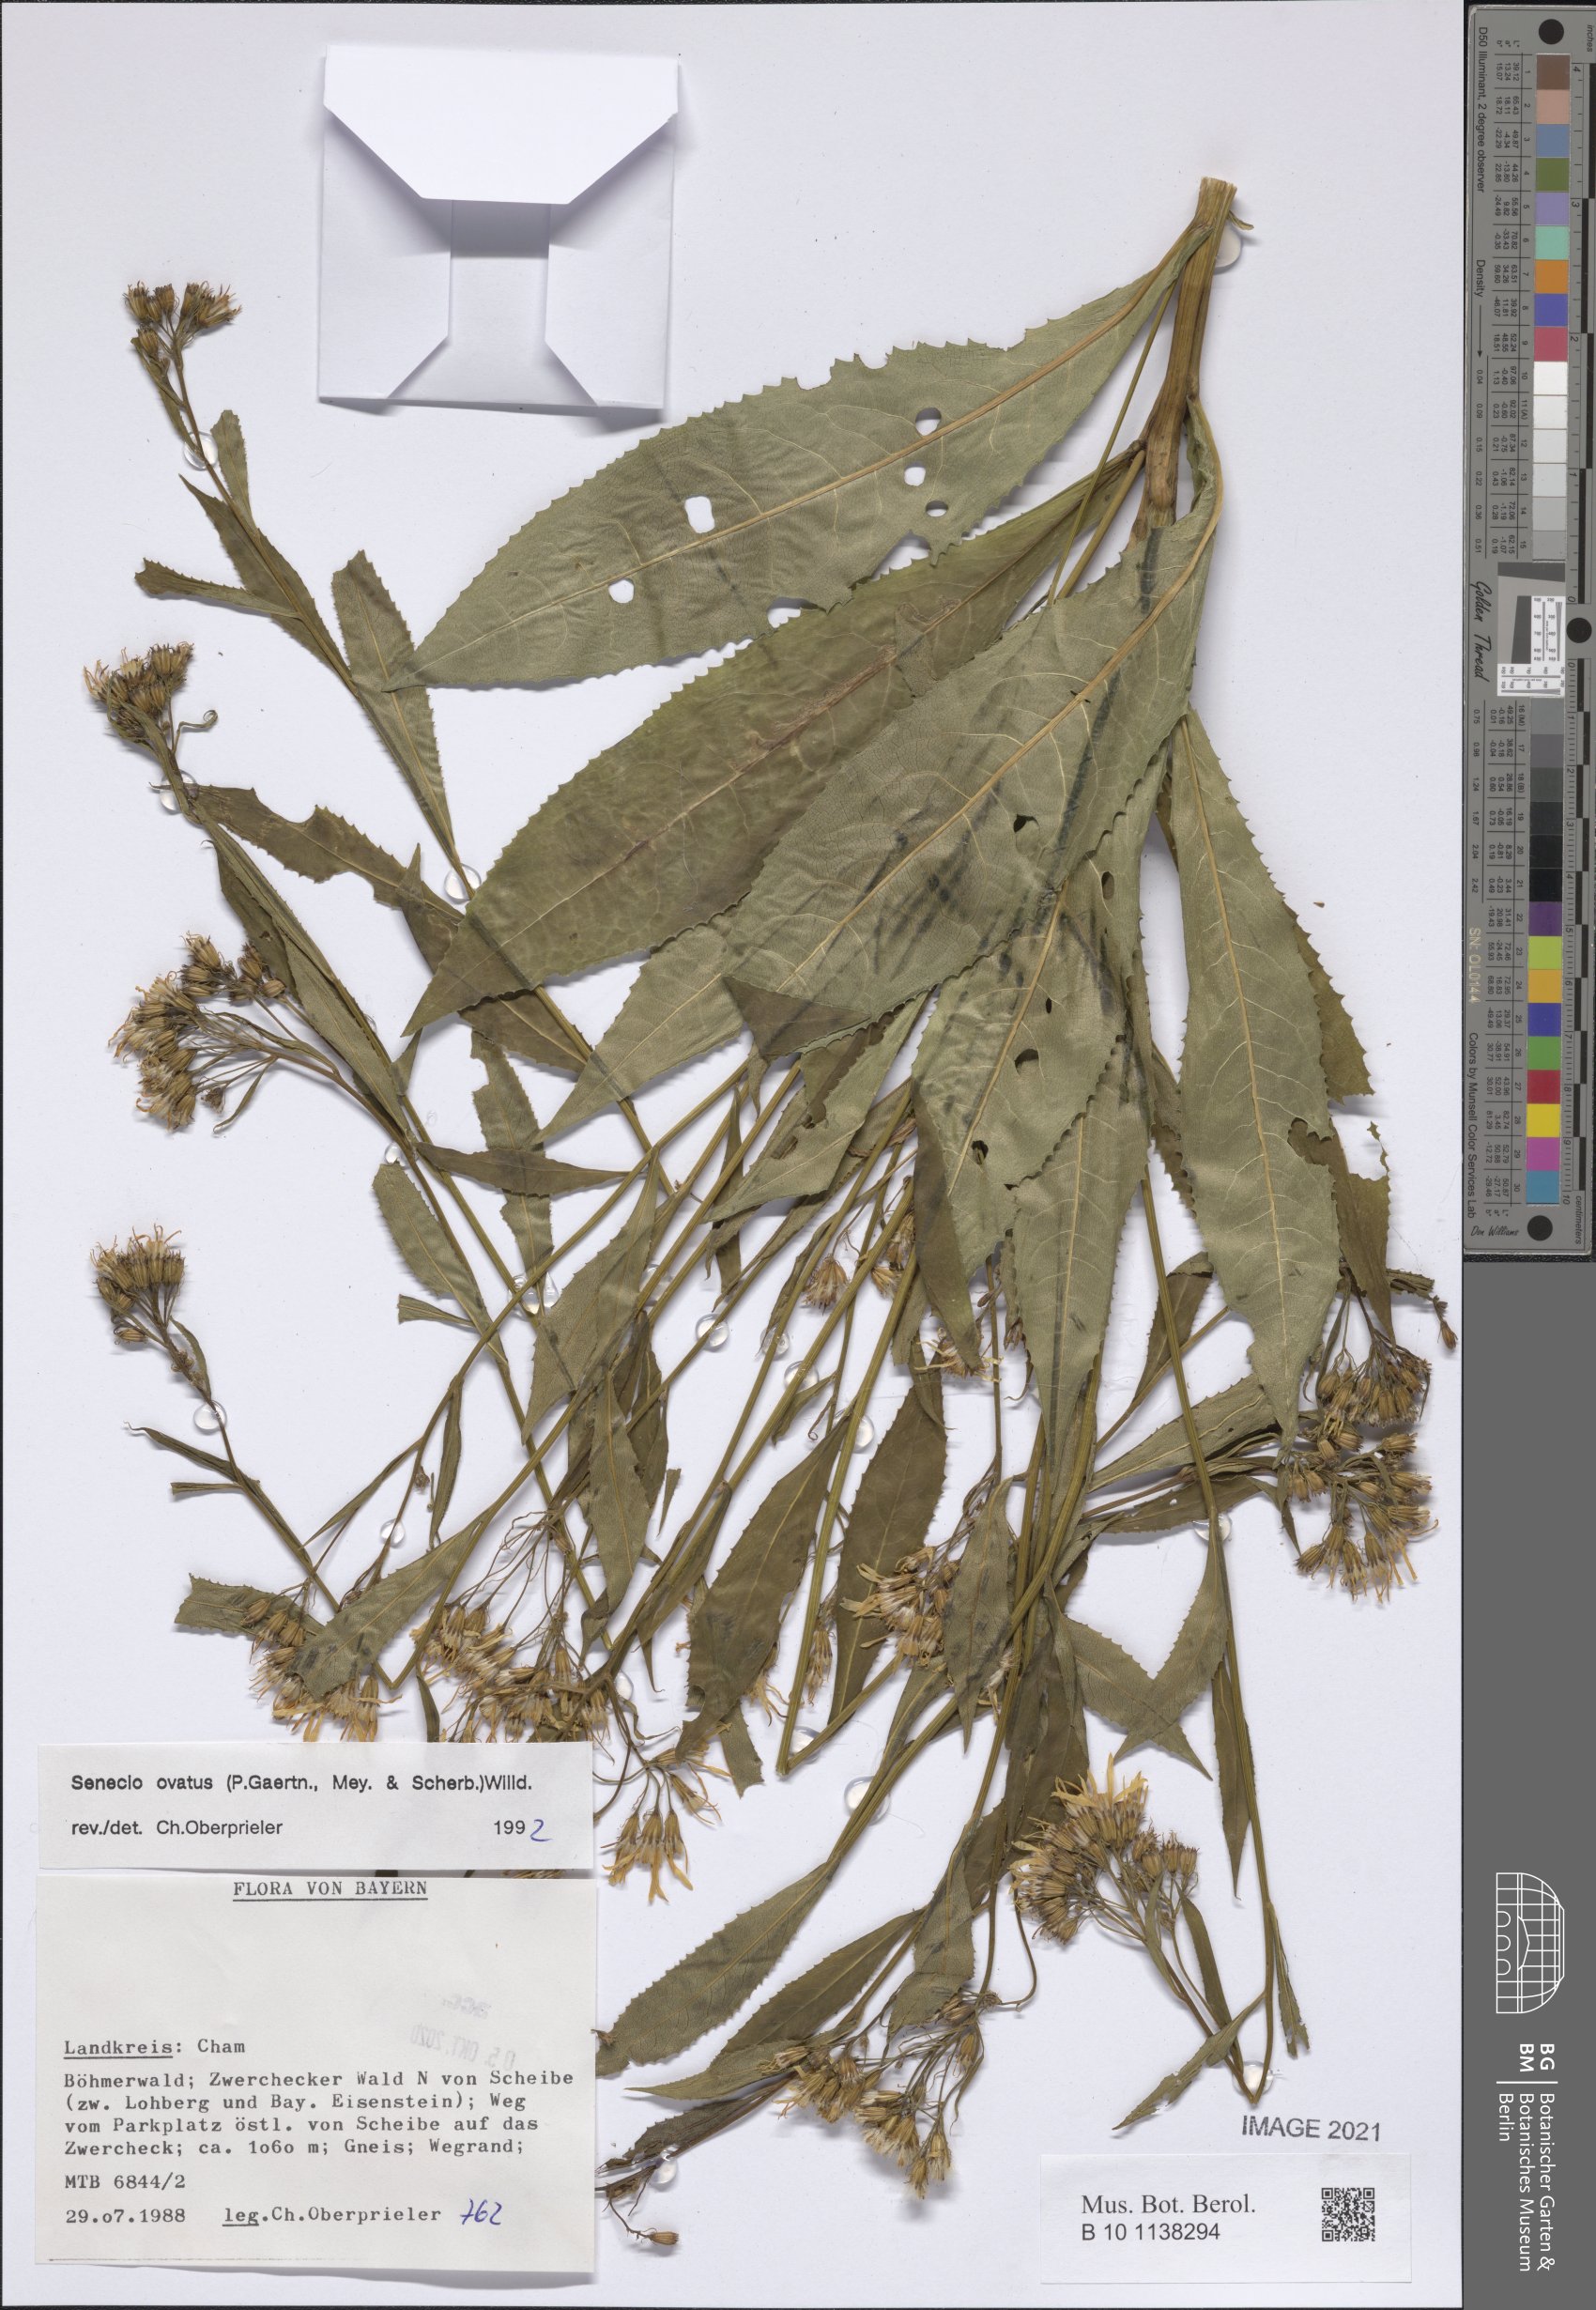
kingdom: Plantae
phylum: Tracheophyta
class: Magnoliopsida
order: Asterales
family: Asteraceae
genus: Senecio
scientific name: Senecio ovatus
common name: Wood ragwort
